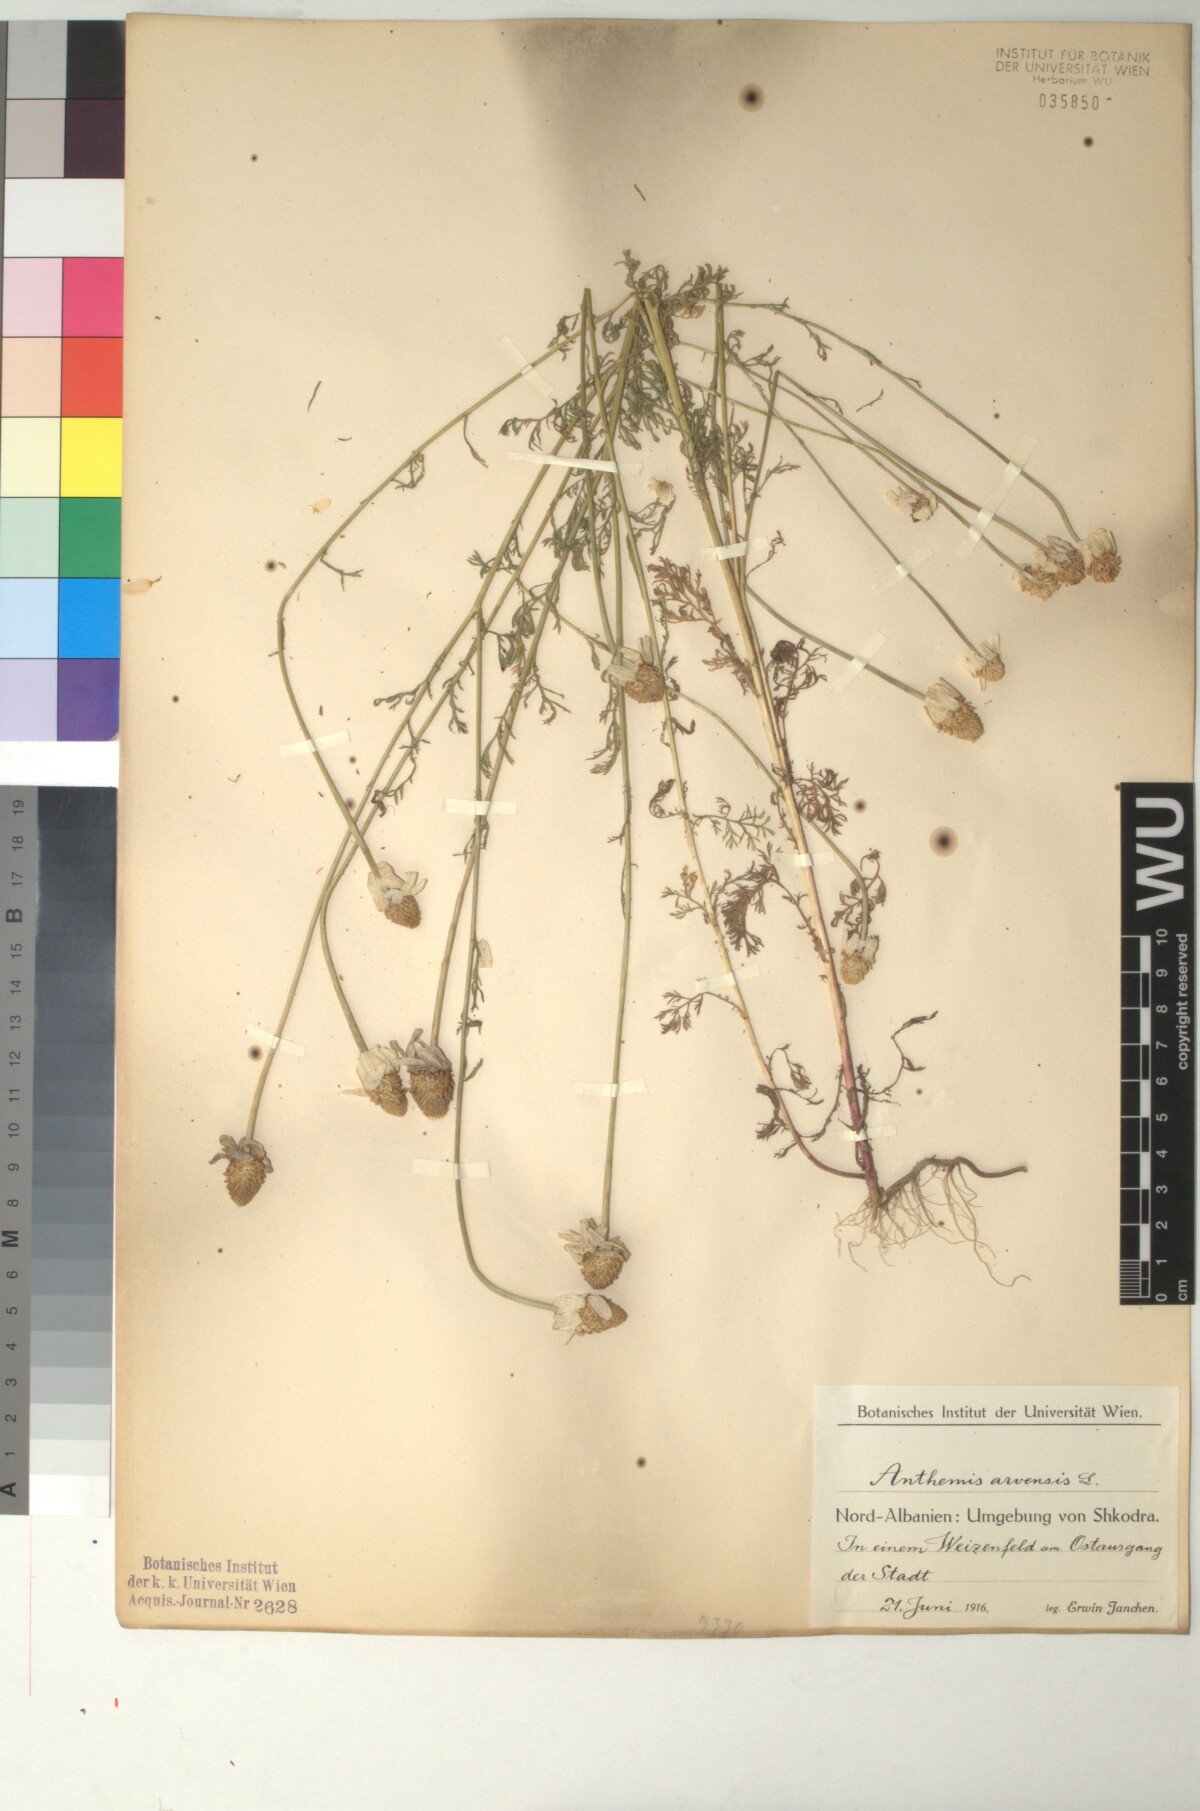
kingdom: Plantae
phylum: Tracheophyta
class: Magnoliopsida
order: Asterales
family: Asteraceae
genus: Anthemis
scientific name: Anthemis arvensis
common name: Corn chamomile
